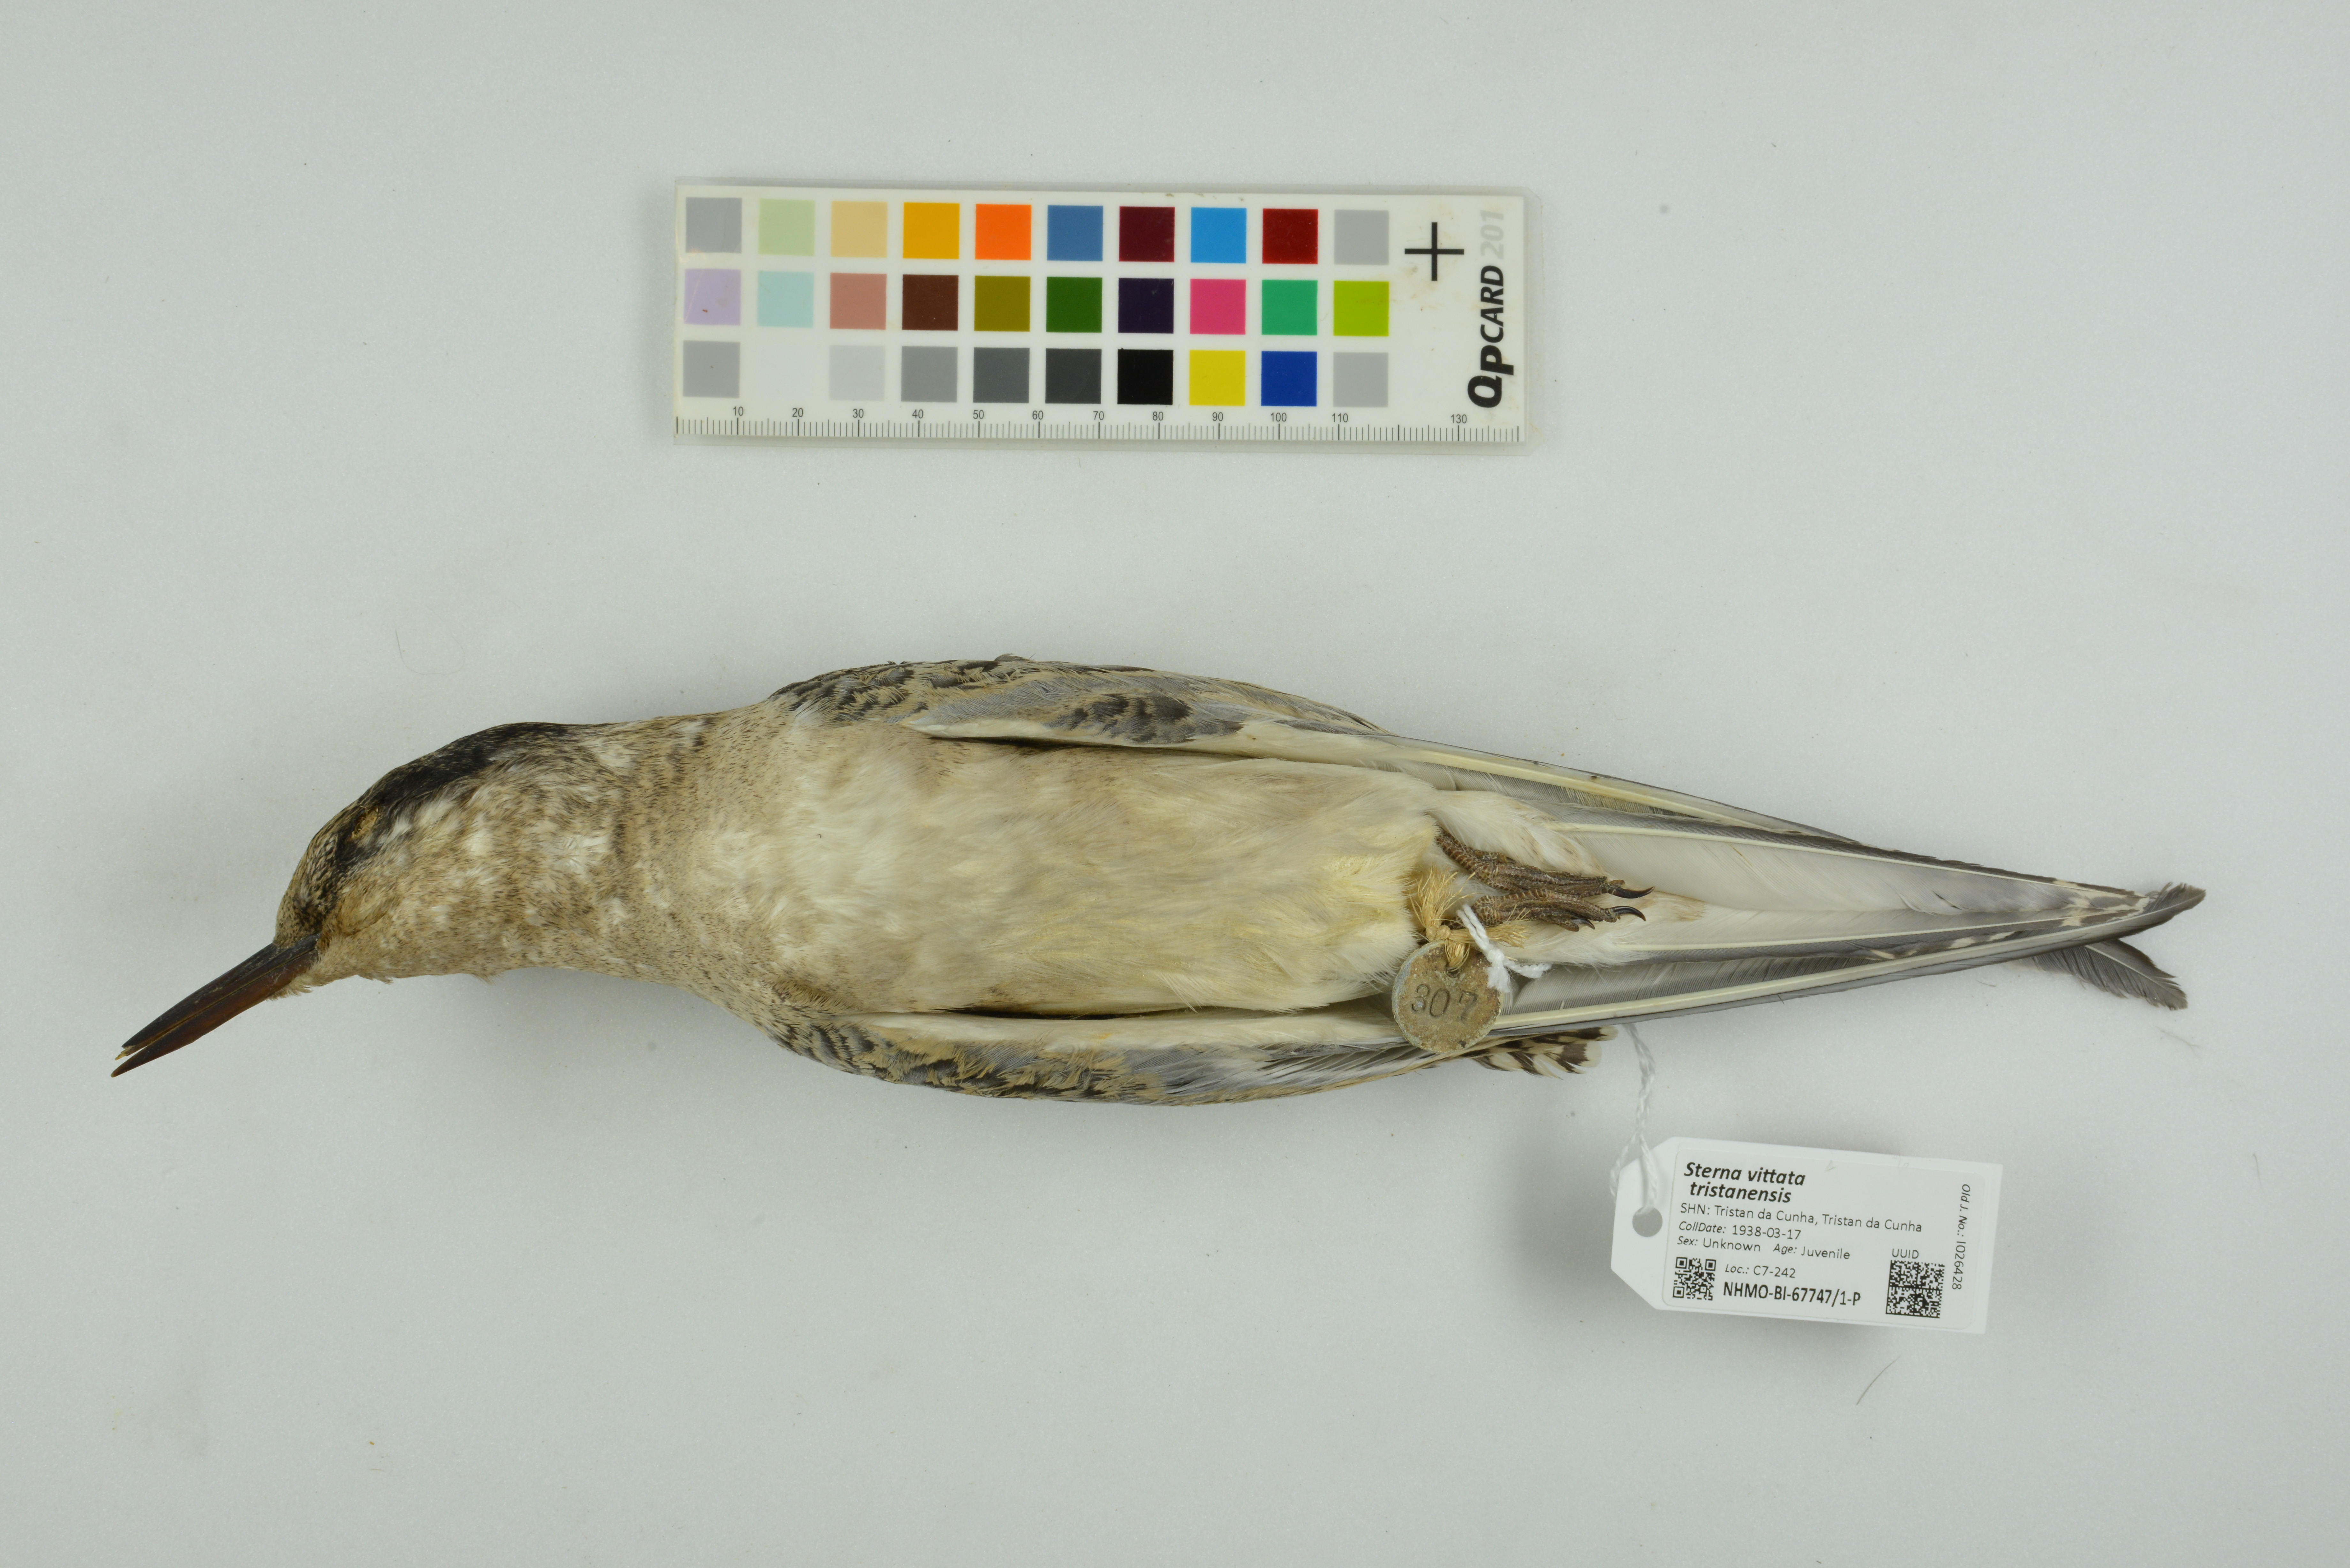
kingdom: Animalia
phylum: Chordata
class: Aves
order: Charadriiformes
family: Laridae
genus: Sterna
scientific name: Sterna vittata
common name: Antarctic tern
